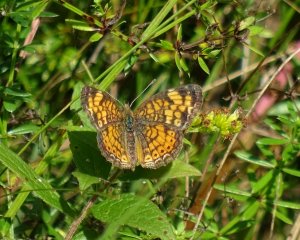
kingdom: Animalia
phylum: Arthropoda
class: Insecta
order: Lepidoptera
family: Nymphalidae
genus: Phyciodes
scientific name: Phyciodes tharos
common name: Pearl Crescent
